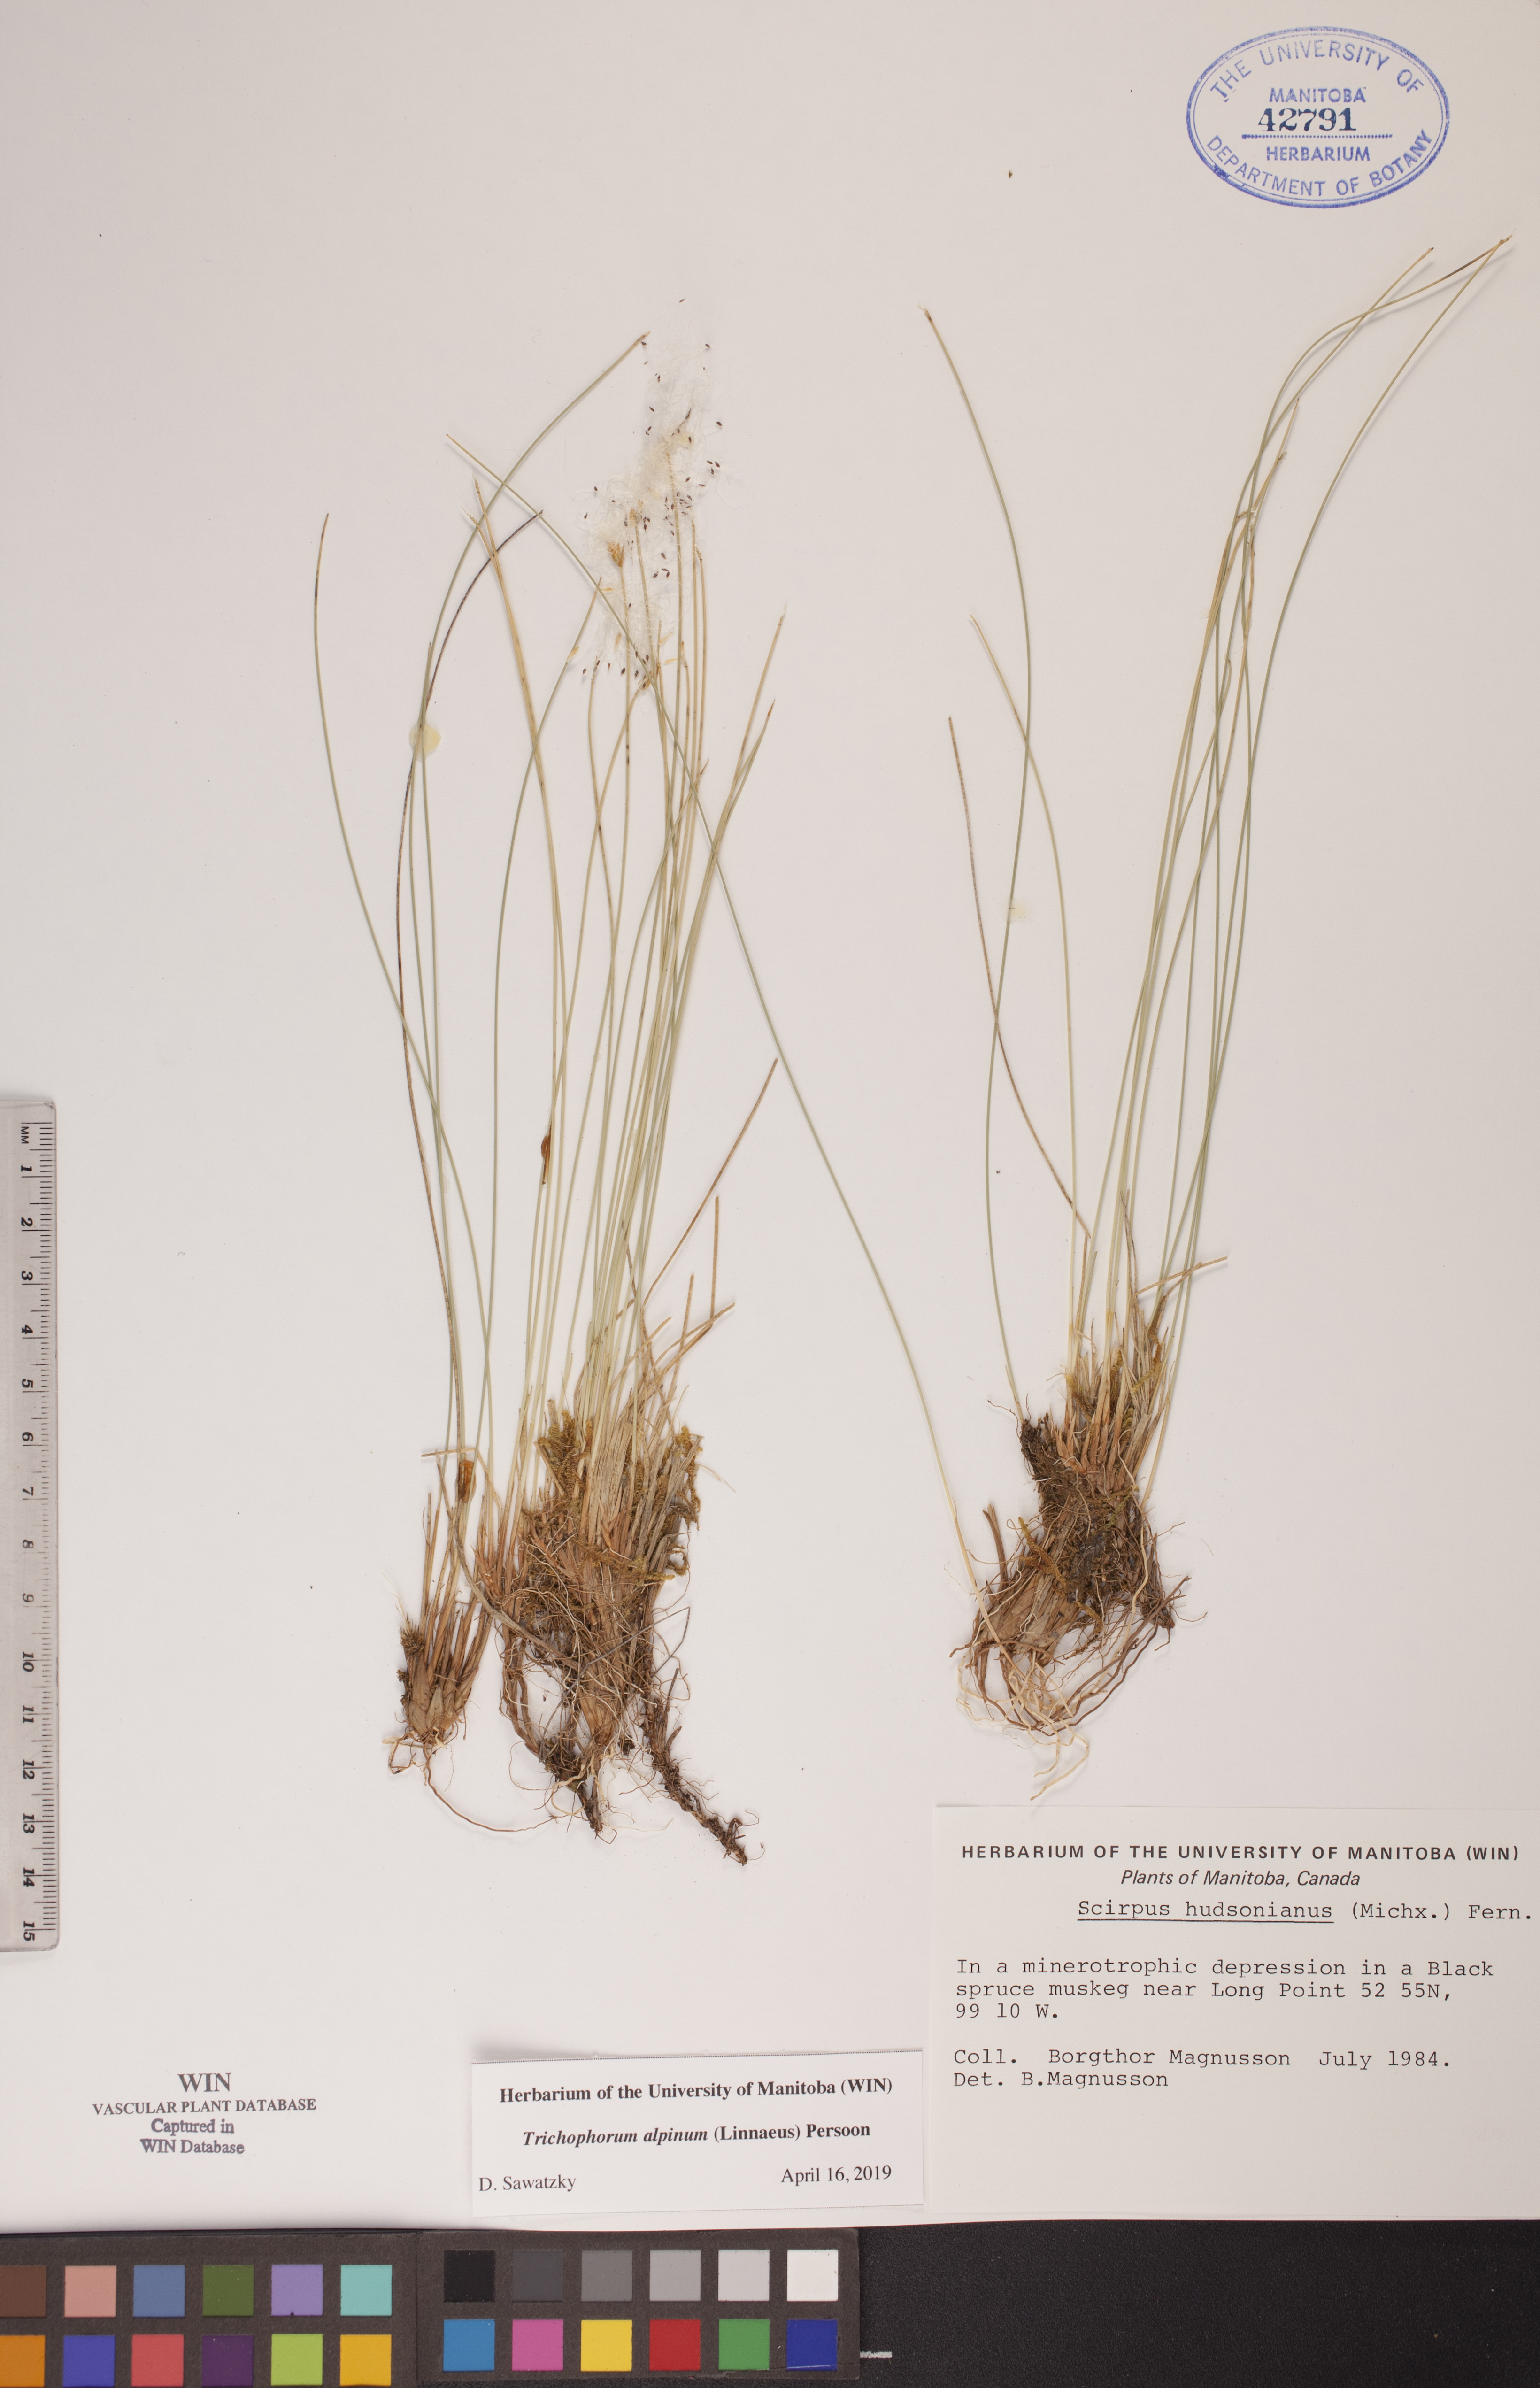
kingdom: Plantae
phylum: Tracheophyta
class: Liliopsida
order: Poales
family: Cyperaceae
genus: Trichophorum
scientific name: Trichophorum alpinum
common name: Alpine bulrush
